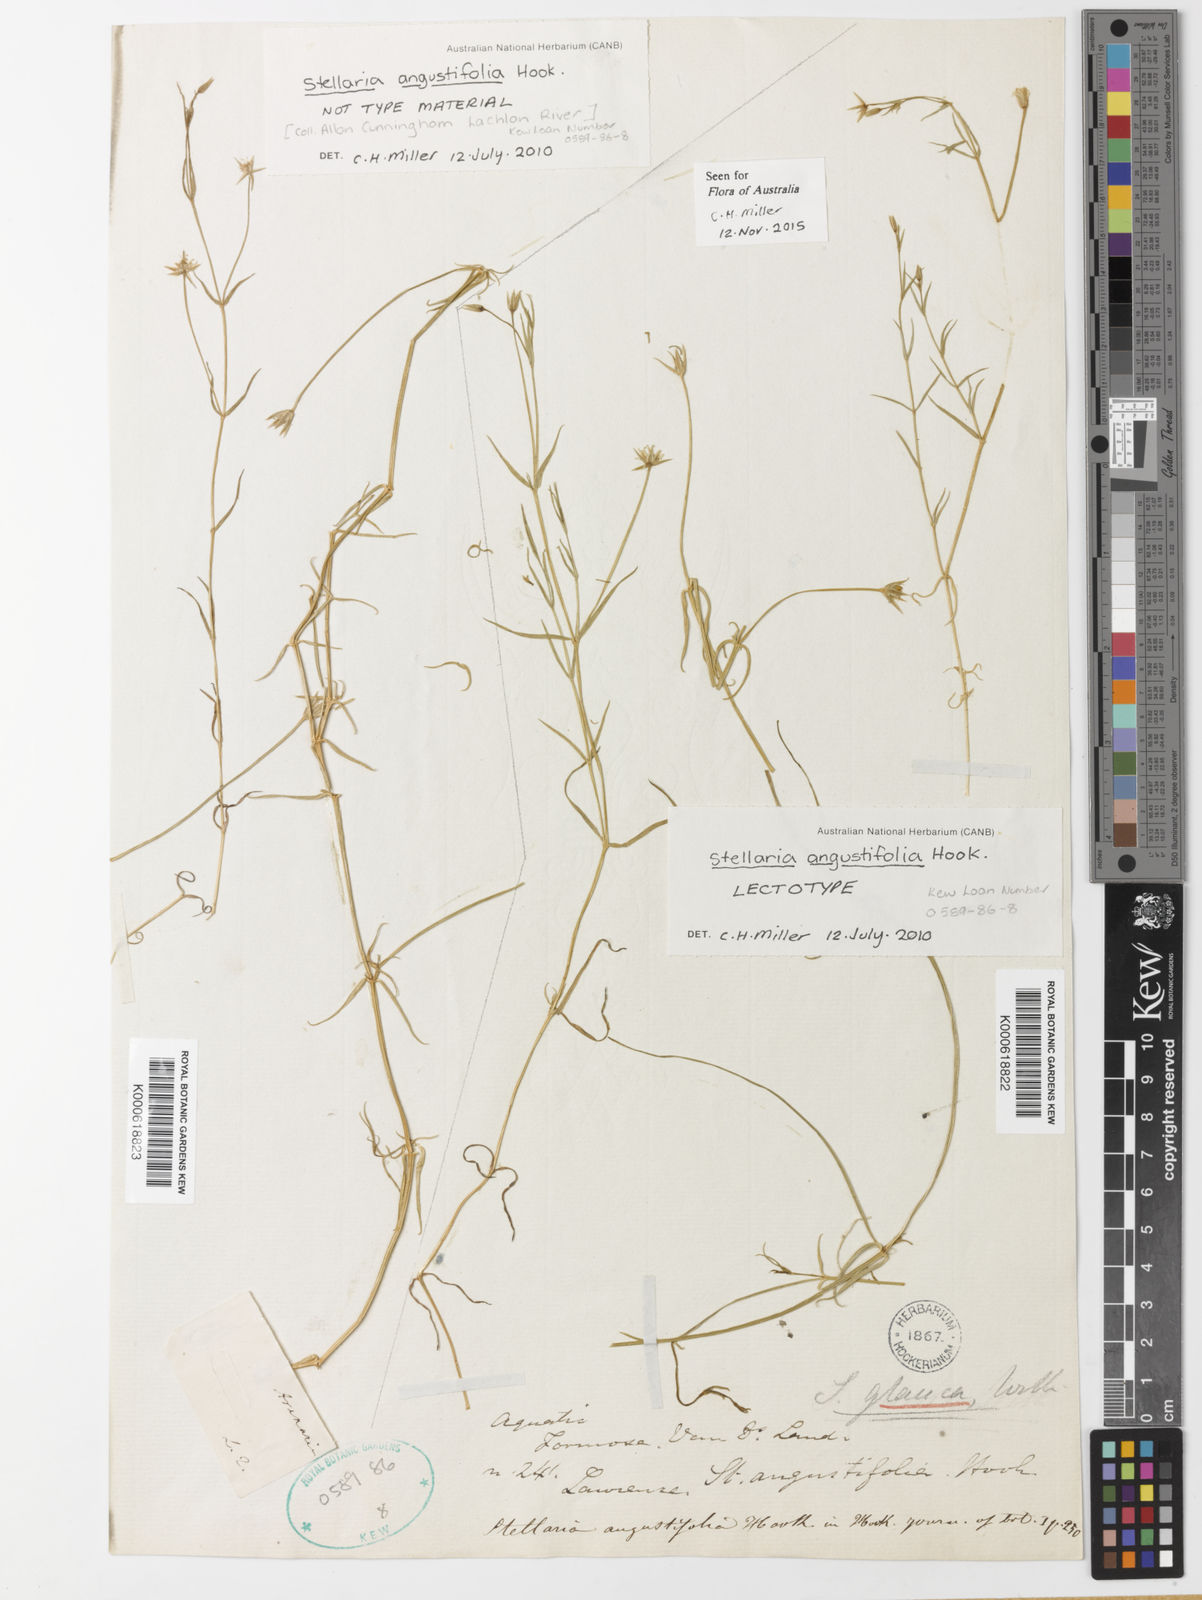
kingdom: Plantae
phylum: Tracheophyta
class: Magnoliopsida
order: Caryophyllales
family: Caryophyllaceae
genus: Stellaria
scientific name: Stellaria palustris
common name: Marsh stitchwort
